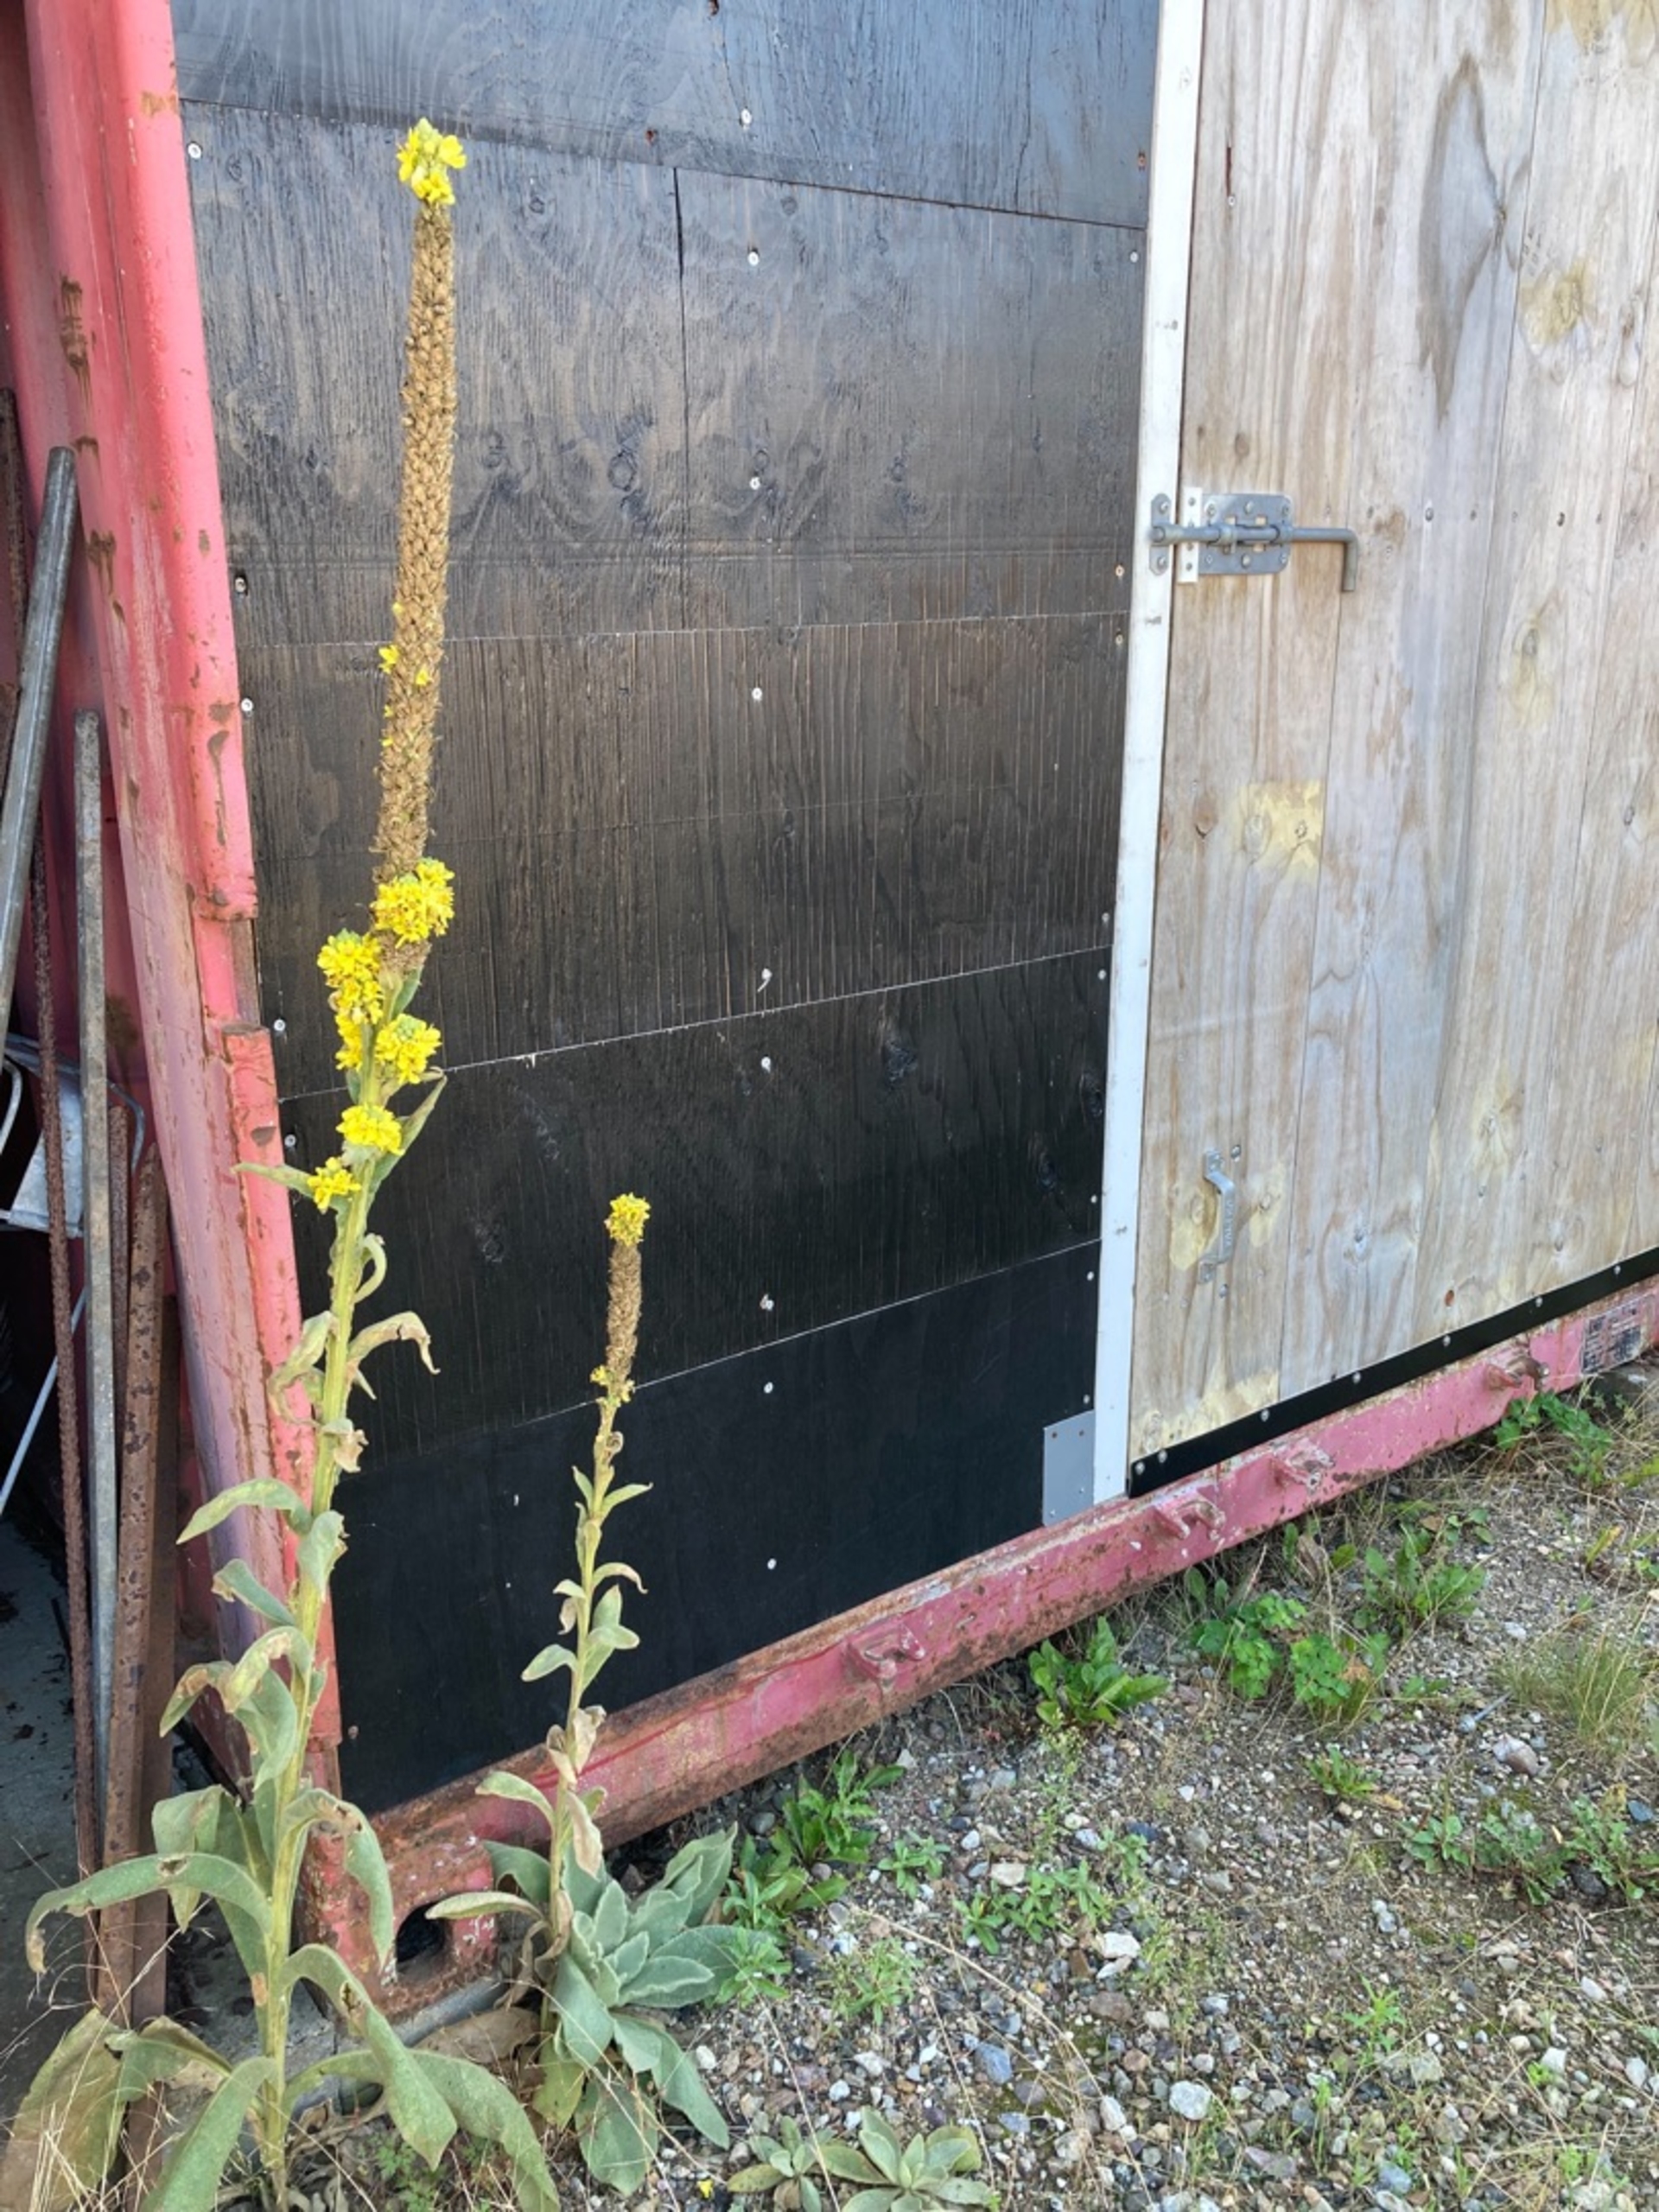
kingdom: Plantae
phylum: Tracheophyta
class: Magnoliopsida
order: Lamiales
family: Scrophulariaceae
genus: Verbascum
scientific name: Verbascum thapsus
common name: Filtbladet kongelys
